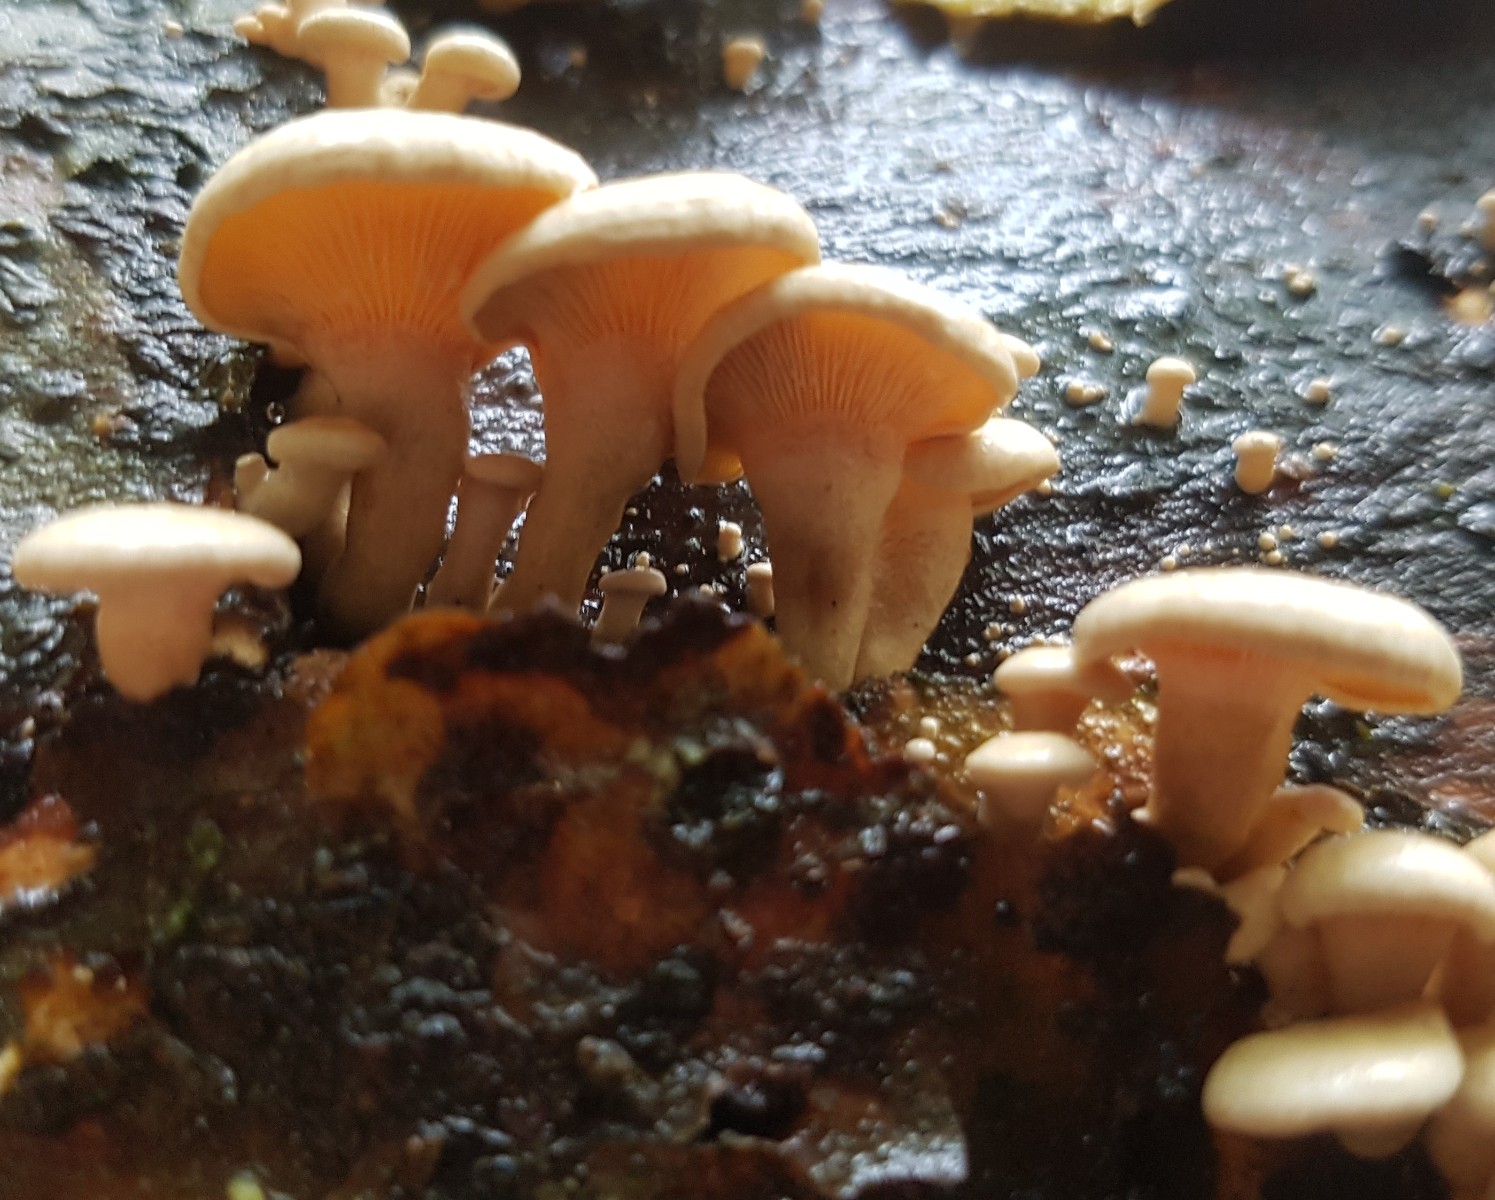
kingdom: Fungi
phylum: Basidiomycota
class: Agaricomycetes
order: Agaricales
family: Mycenaceae
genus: Panellus
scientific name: Panellus stipticus
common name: kliddet epaulethat
